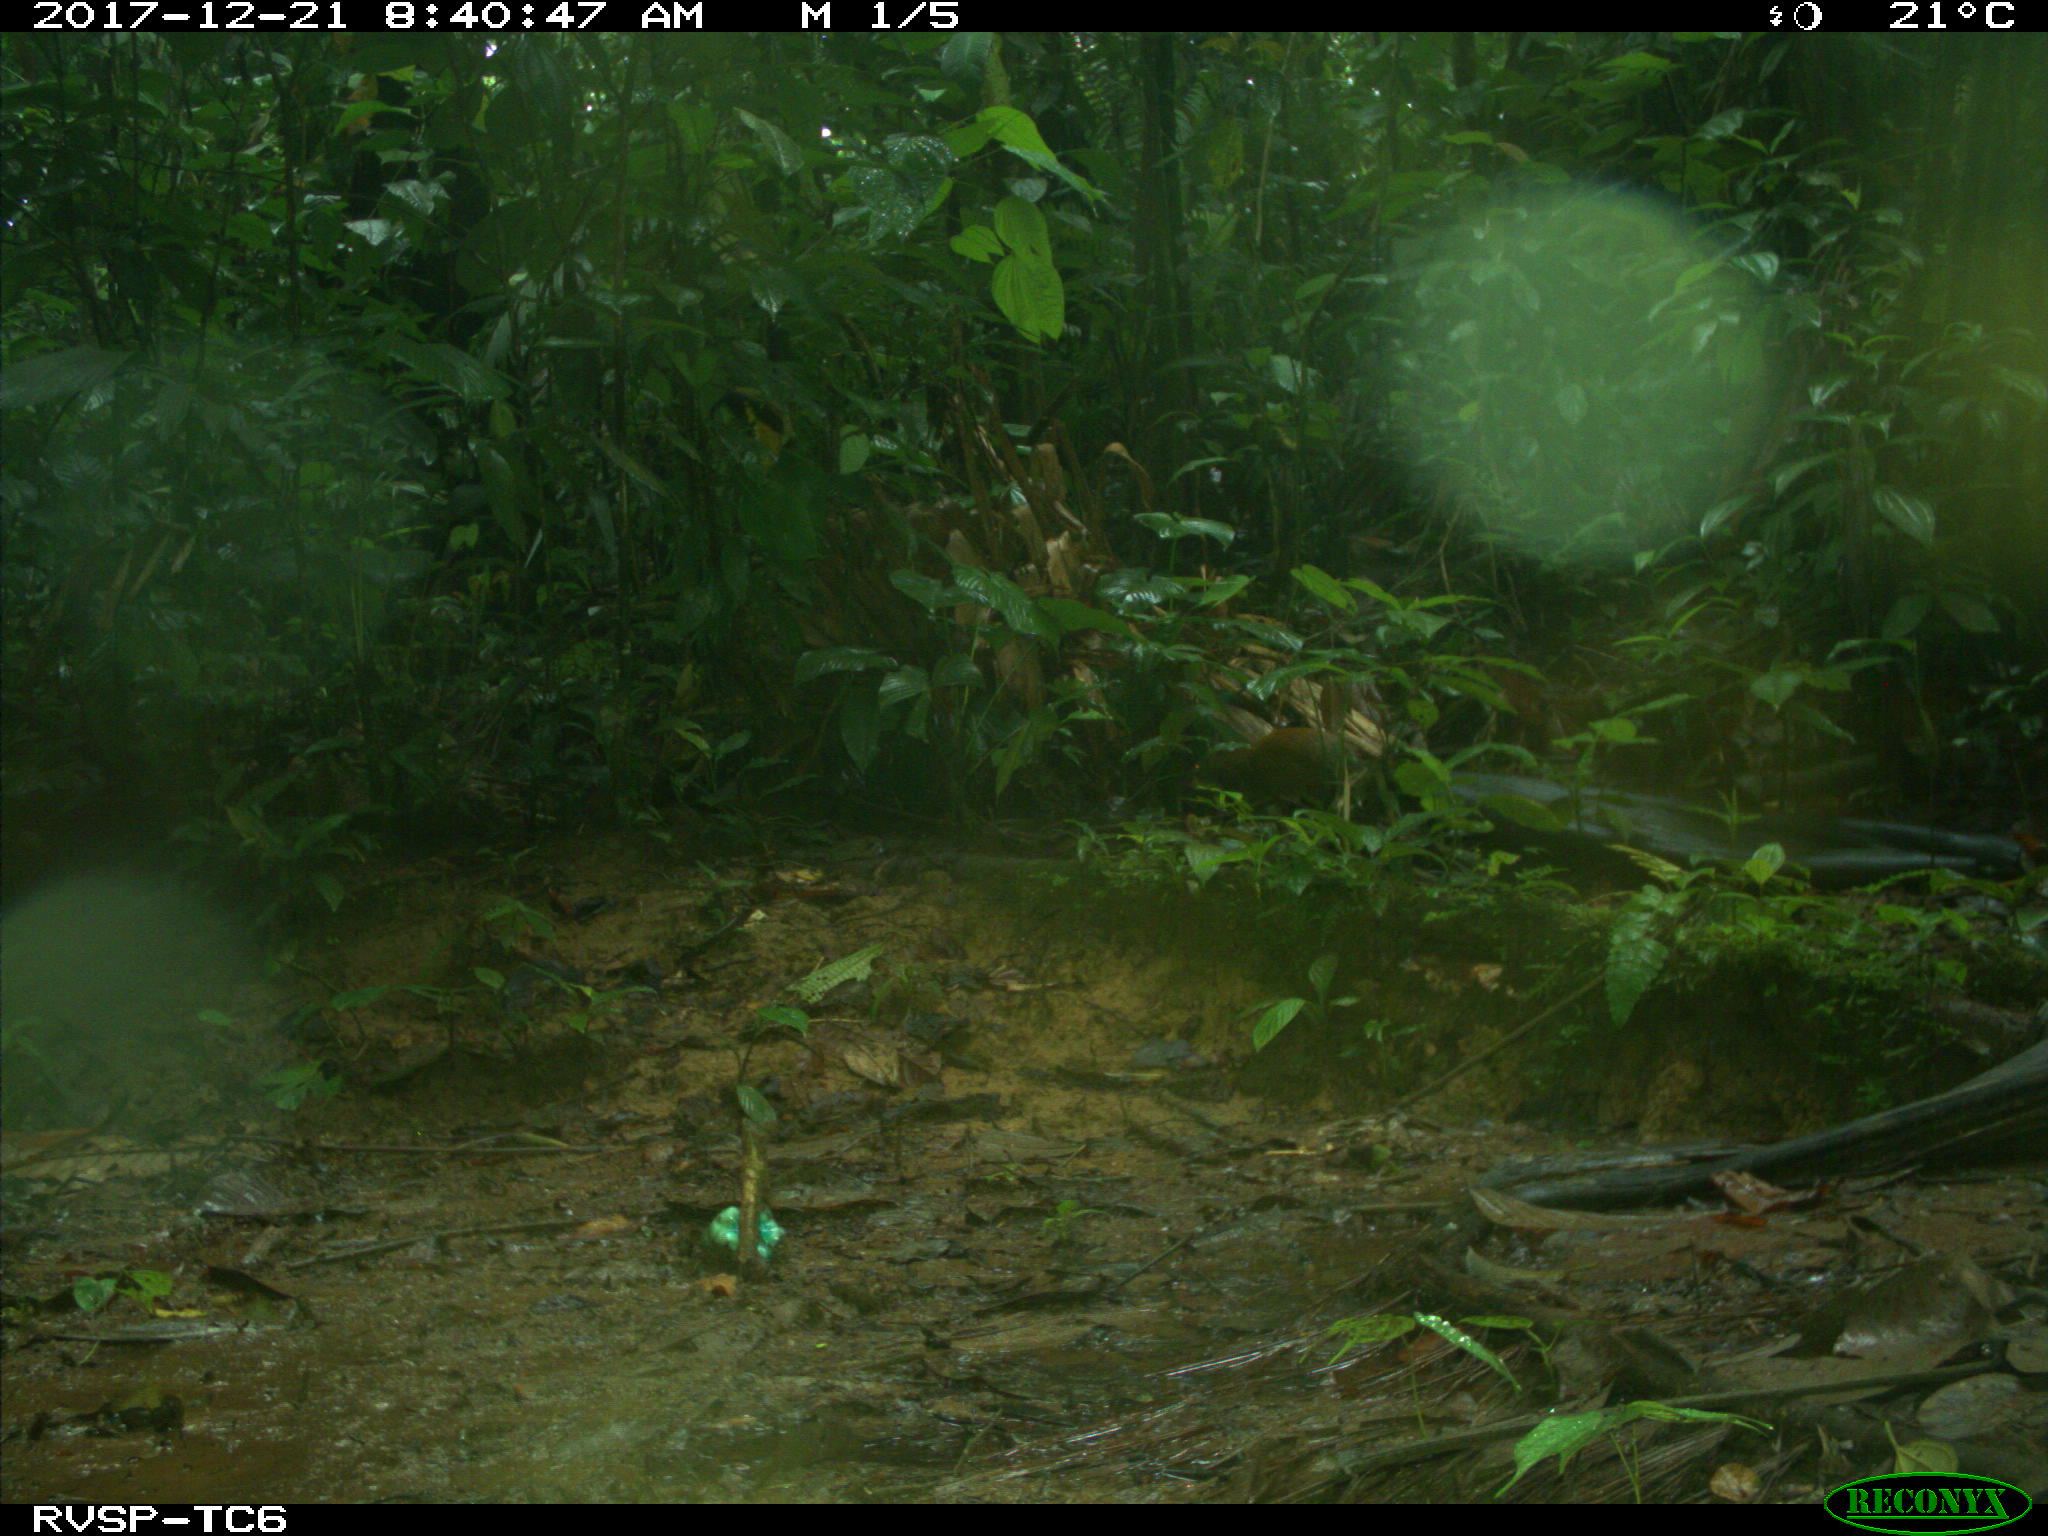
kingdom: Animalia
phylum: Chordata
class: Mammalia
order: Rodentia
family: Dasyproctidae
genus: Dasyprocta
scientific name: Dasyprocta punctata
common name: Central american agouti
